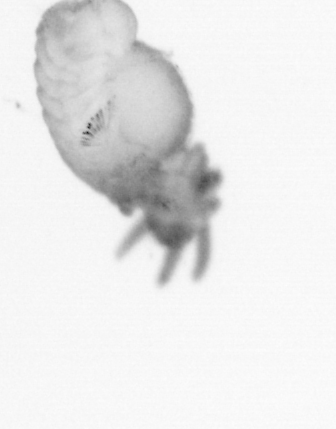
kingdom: Animalia
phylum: Annelida
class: Polychaeta
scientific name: Polychaeta
